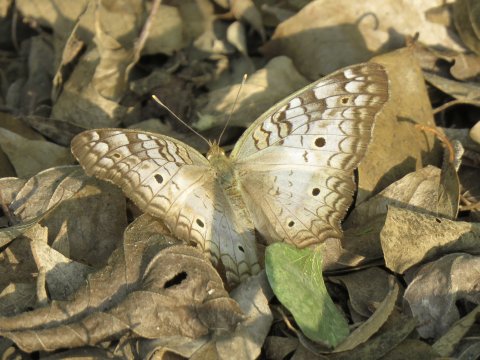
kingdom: Animalia
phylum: Arthropoda
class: Insecta
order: Lepidoptera
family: Nymphalidae
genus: Anartia
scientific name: Anartia jatrophae
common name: White Peacock
